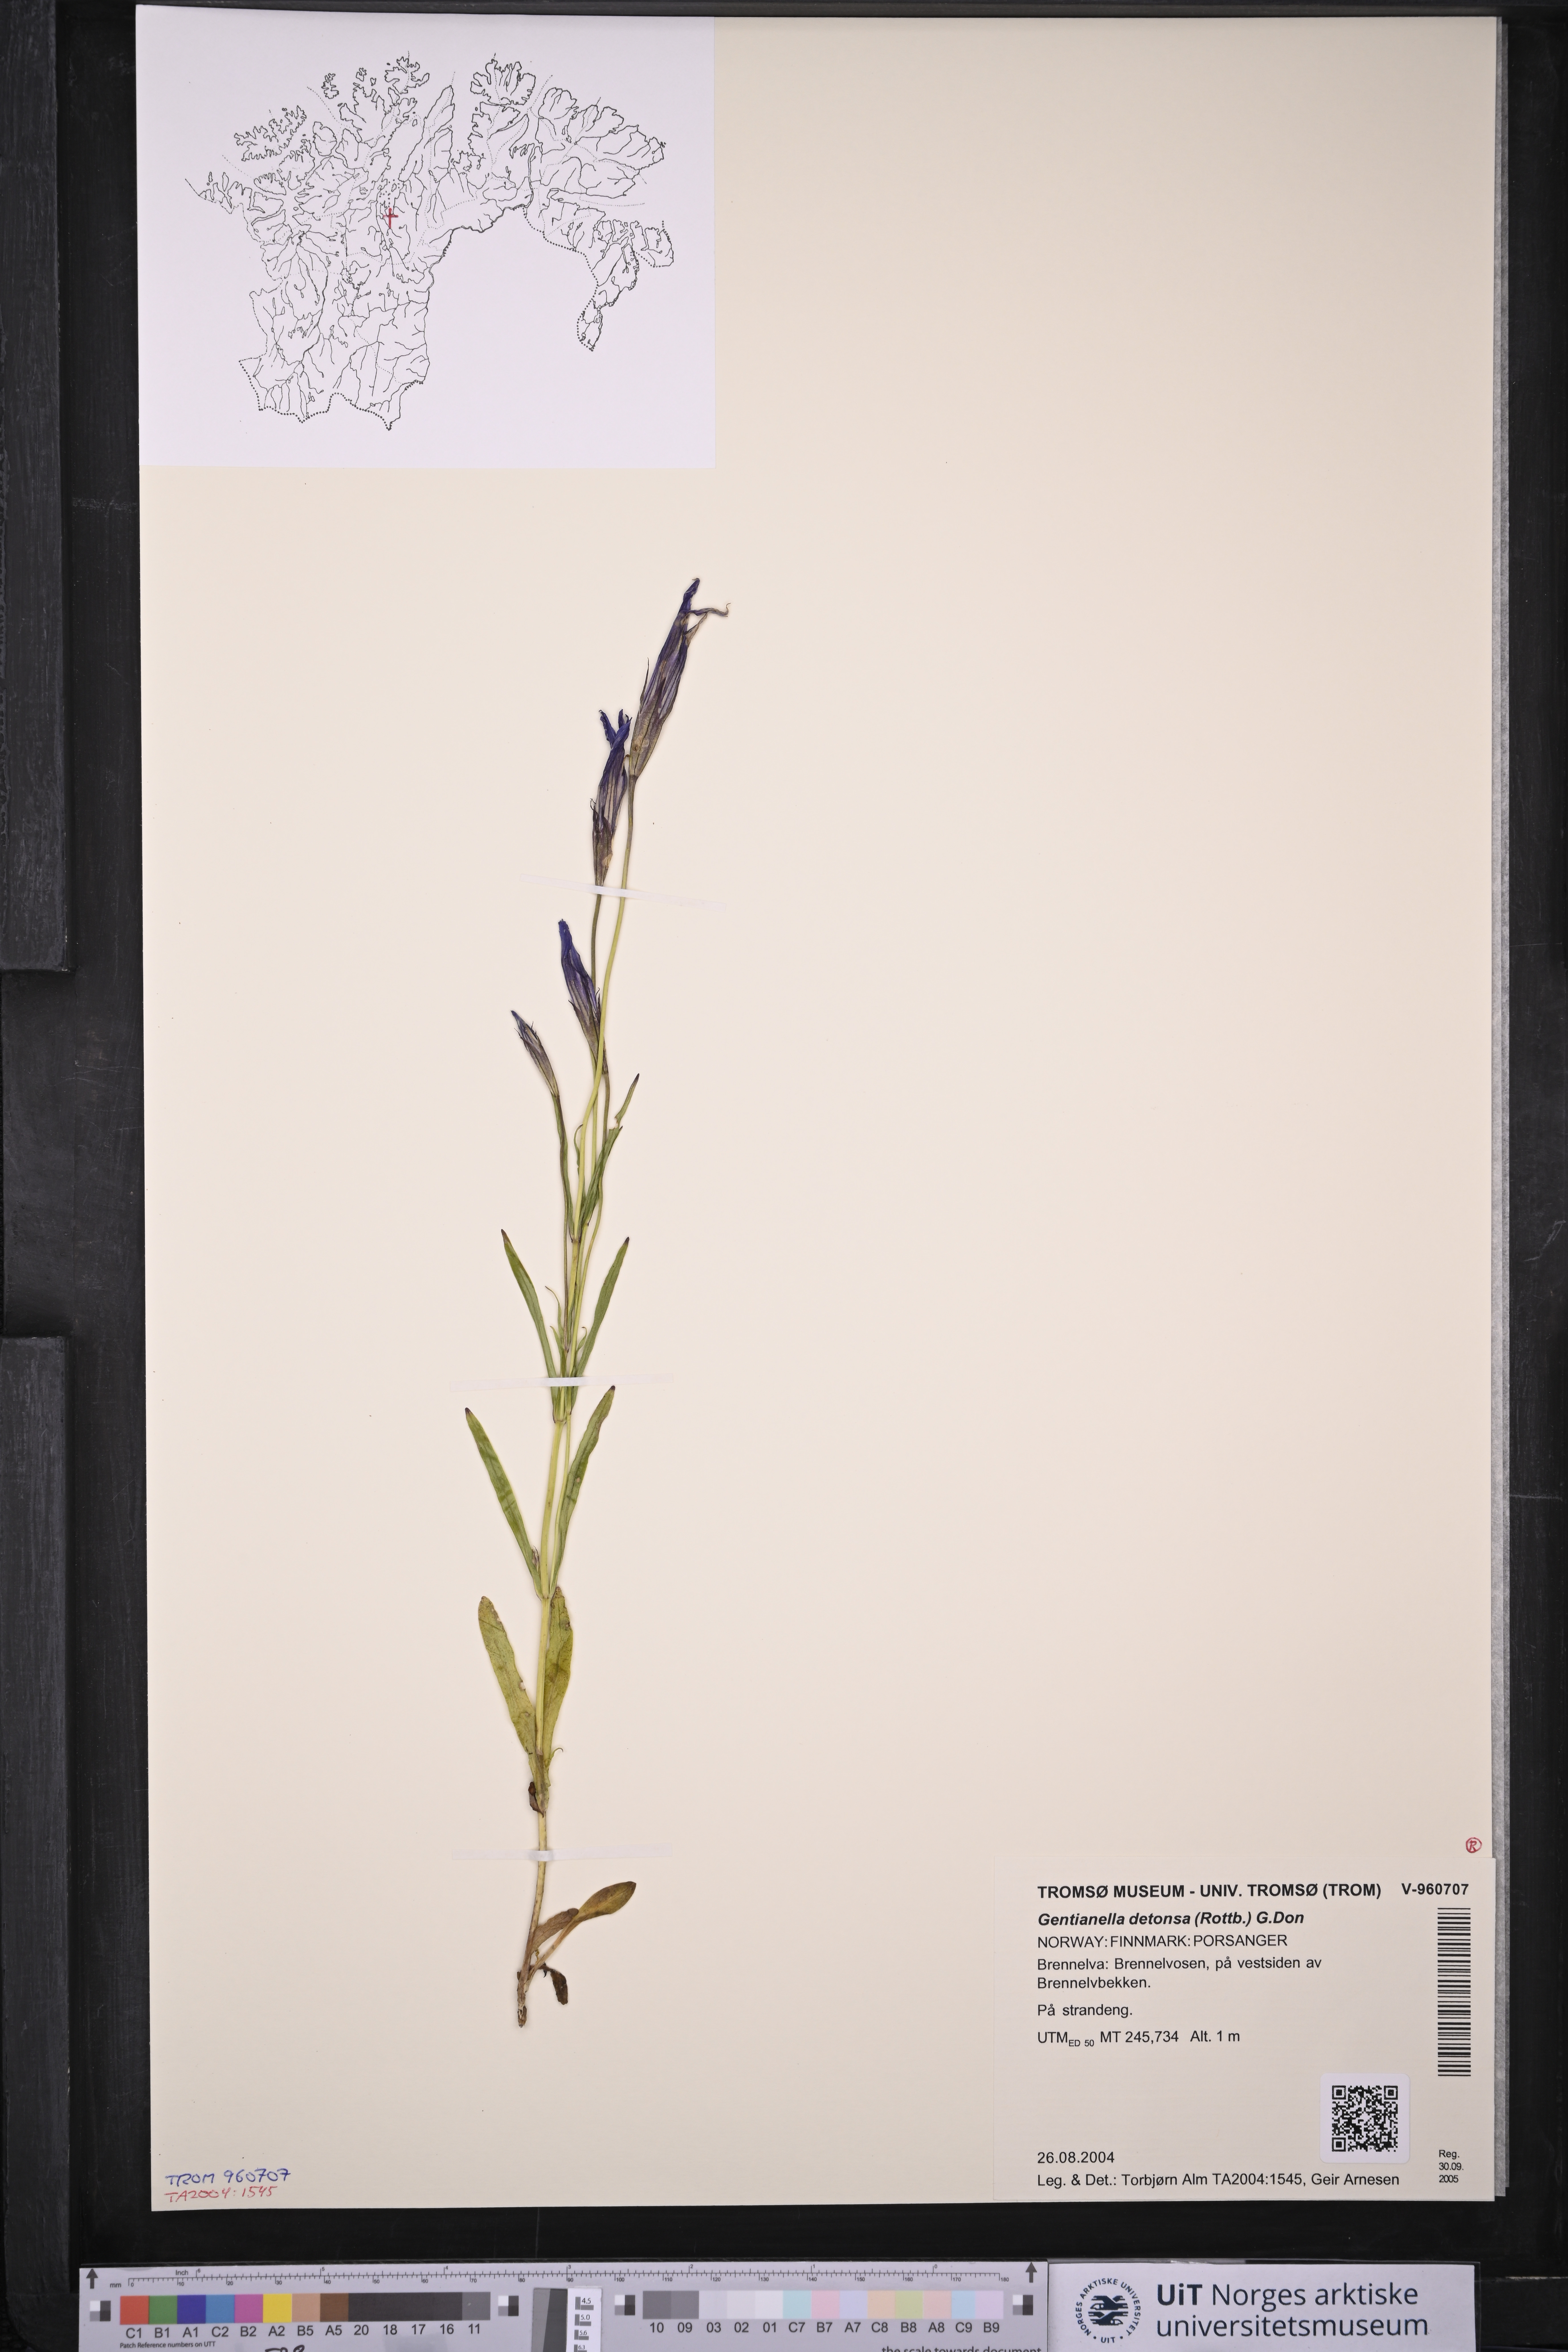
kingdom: Plantae
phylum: Tracheophyta
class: Magnoliopsida
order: Gentianales
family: Gentianaceae
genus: Gentianopsis
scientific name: Gentianopsis detonsa
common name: Fringed-gentian
